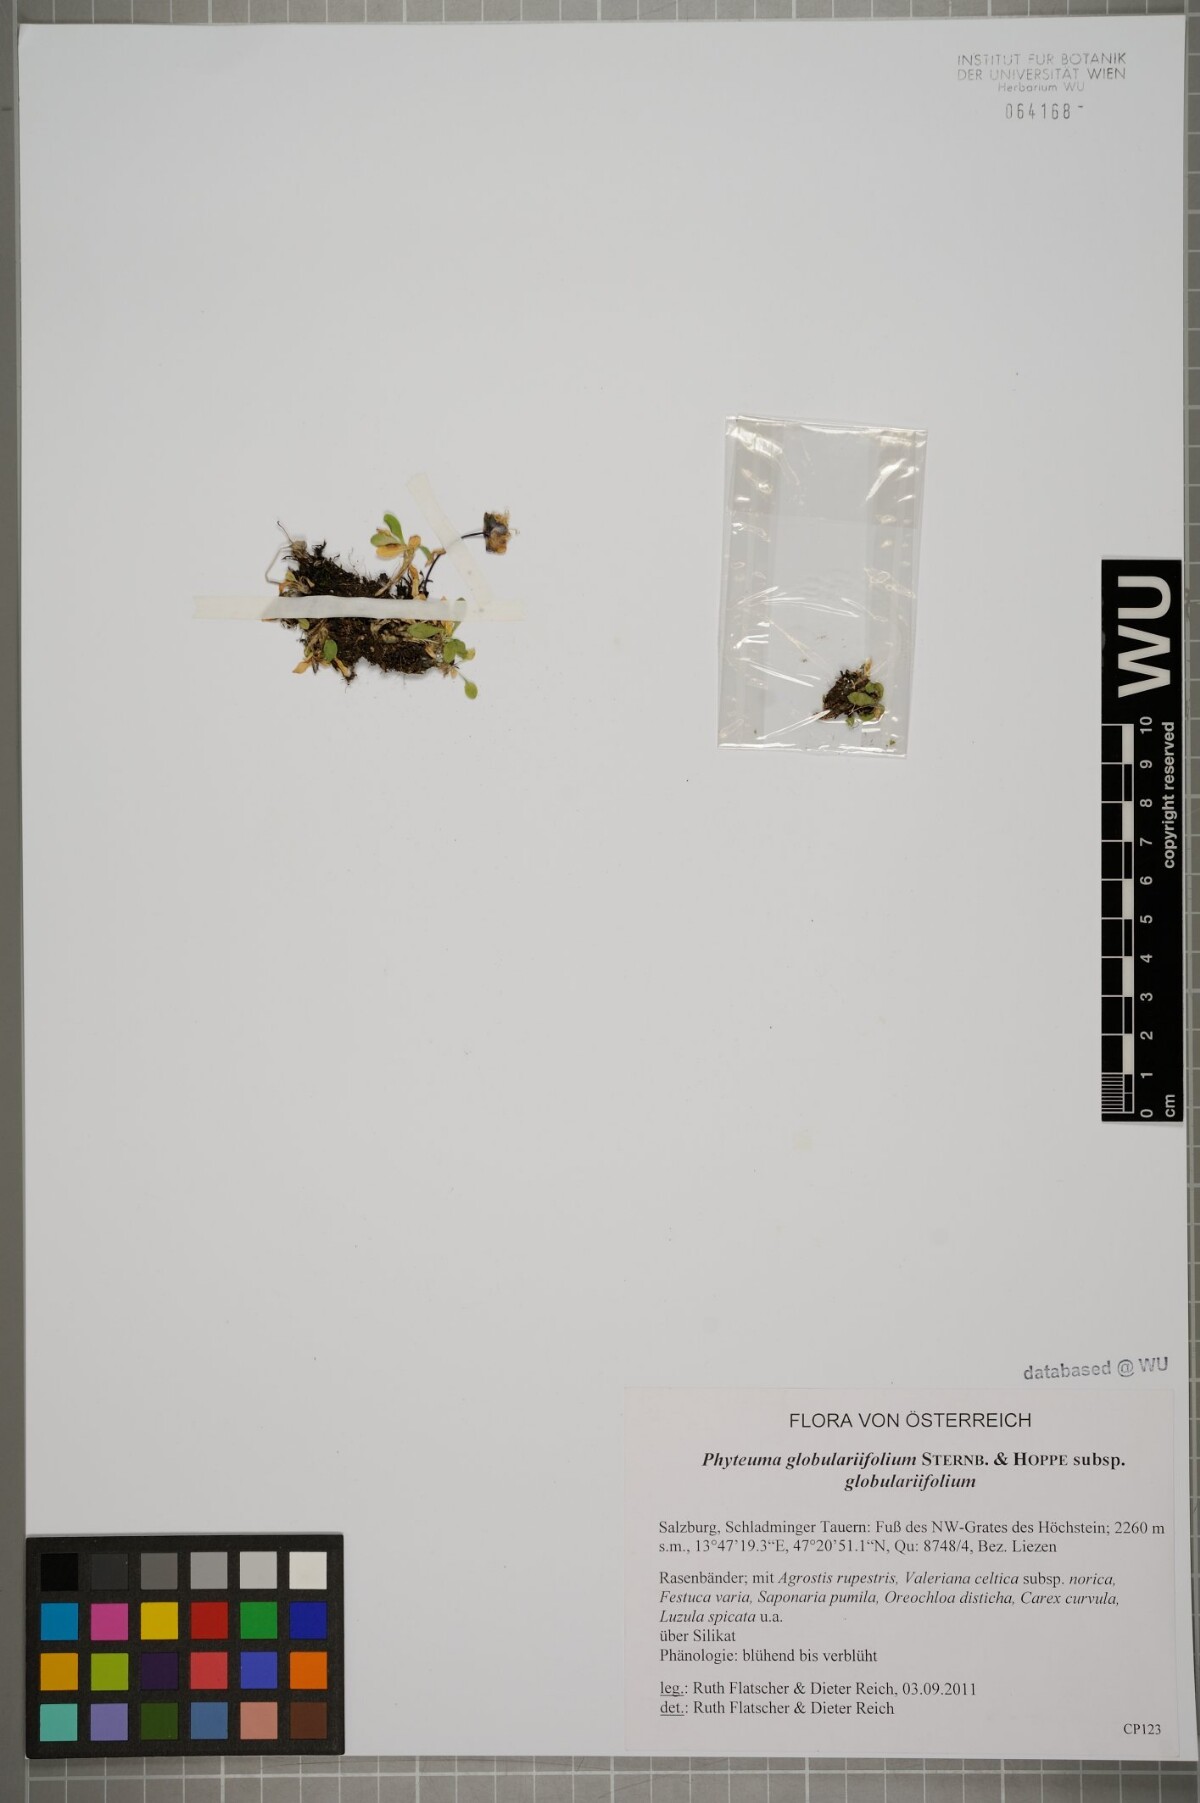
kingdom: Plantae
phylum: Tracheophyta
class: Magnoliopsida
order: Asterales
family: Campanulaceae
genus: Phyteuma
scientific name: Phyteuma globulariifolium
